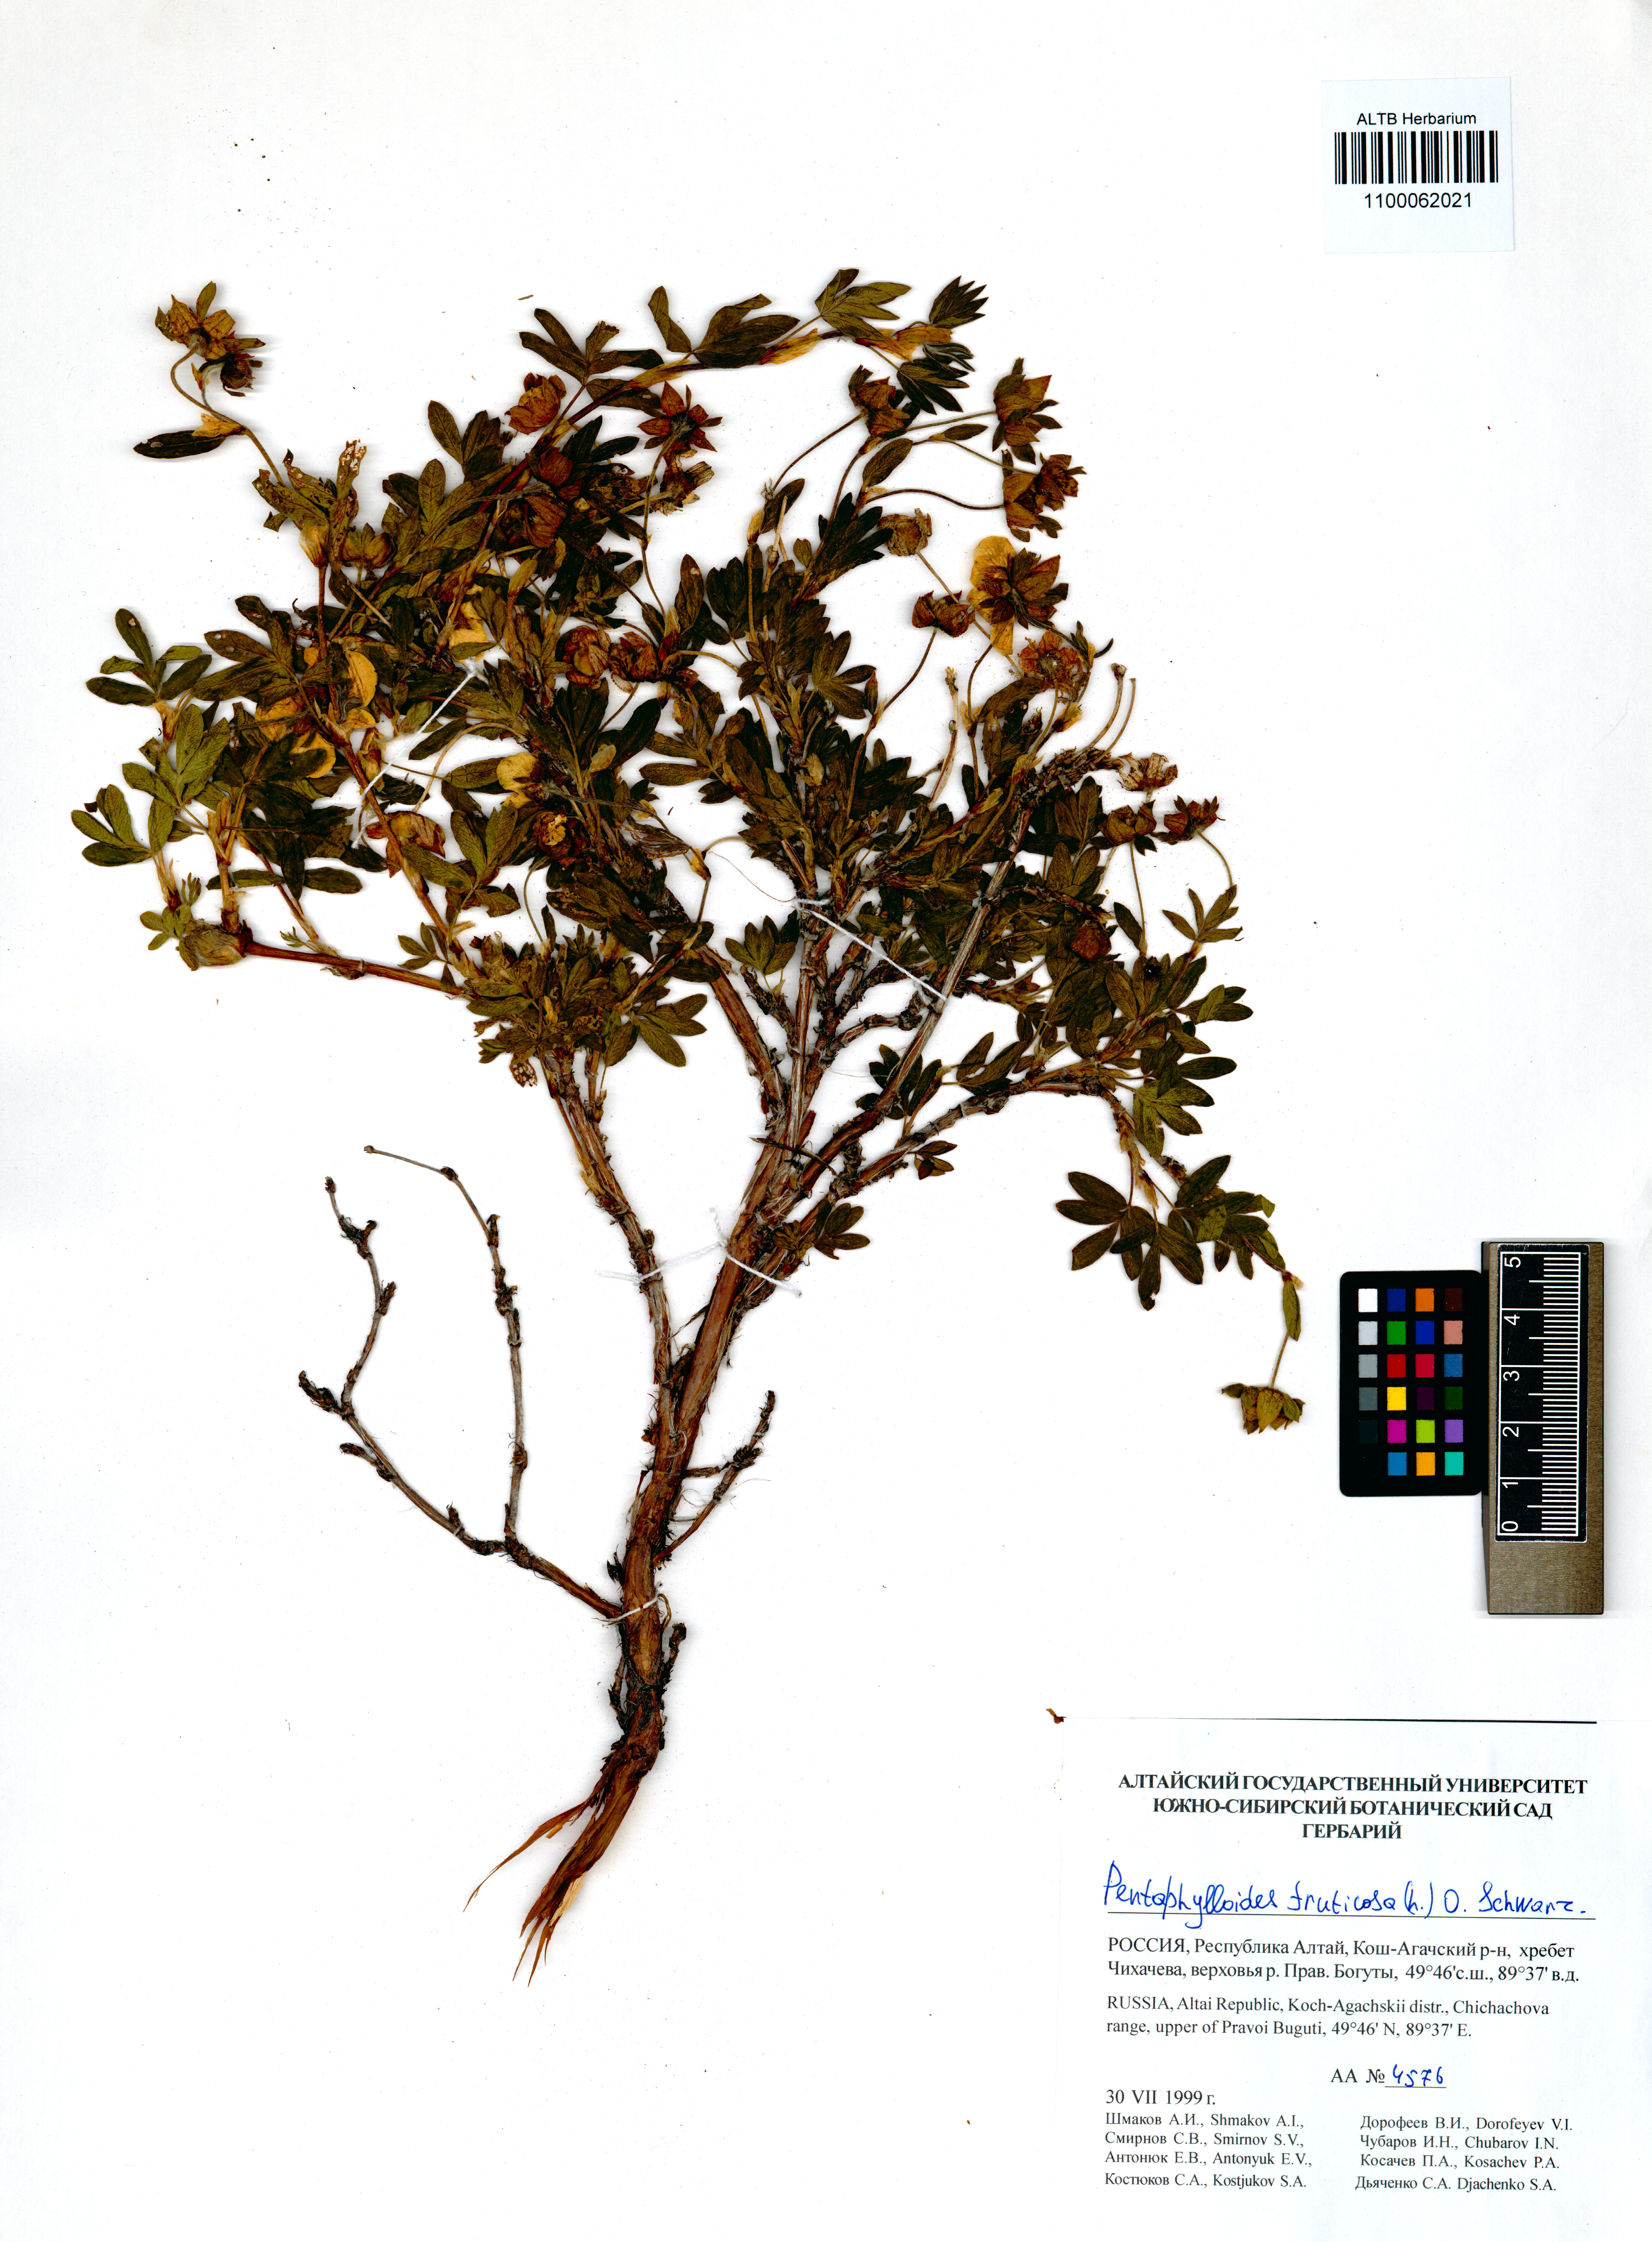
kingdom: Plantae
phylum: Tracheophyta
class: Magnoliopsida
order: Rosales
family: Rosaceae
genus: Dasiphora
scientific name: Dasiphora fruticosa
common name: Shrubby cinquefoil
